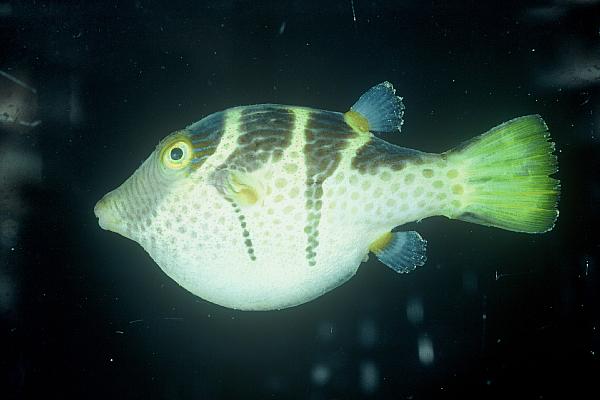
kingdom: Animalia
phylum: Chordata
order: Tetraodontiformes
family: Tetraodontidae
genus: Canthigaster
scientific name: Canthigaster valentini
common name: Banded toby
